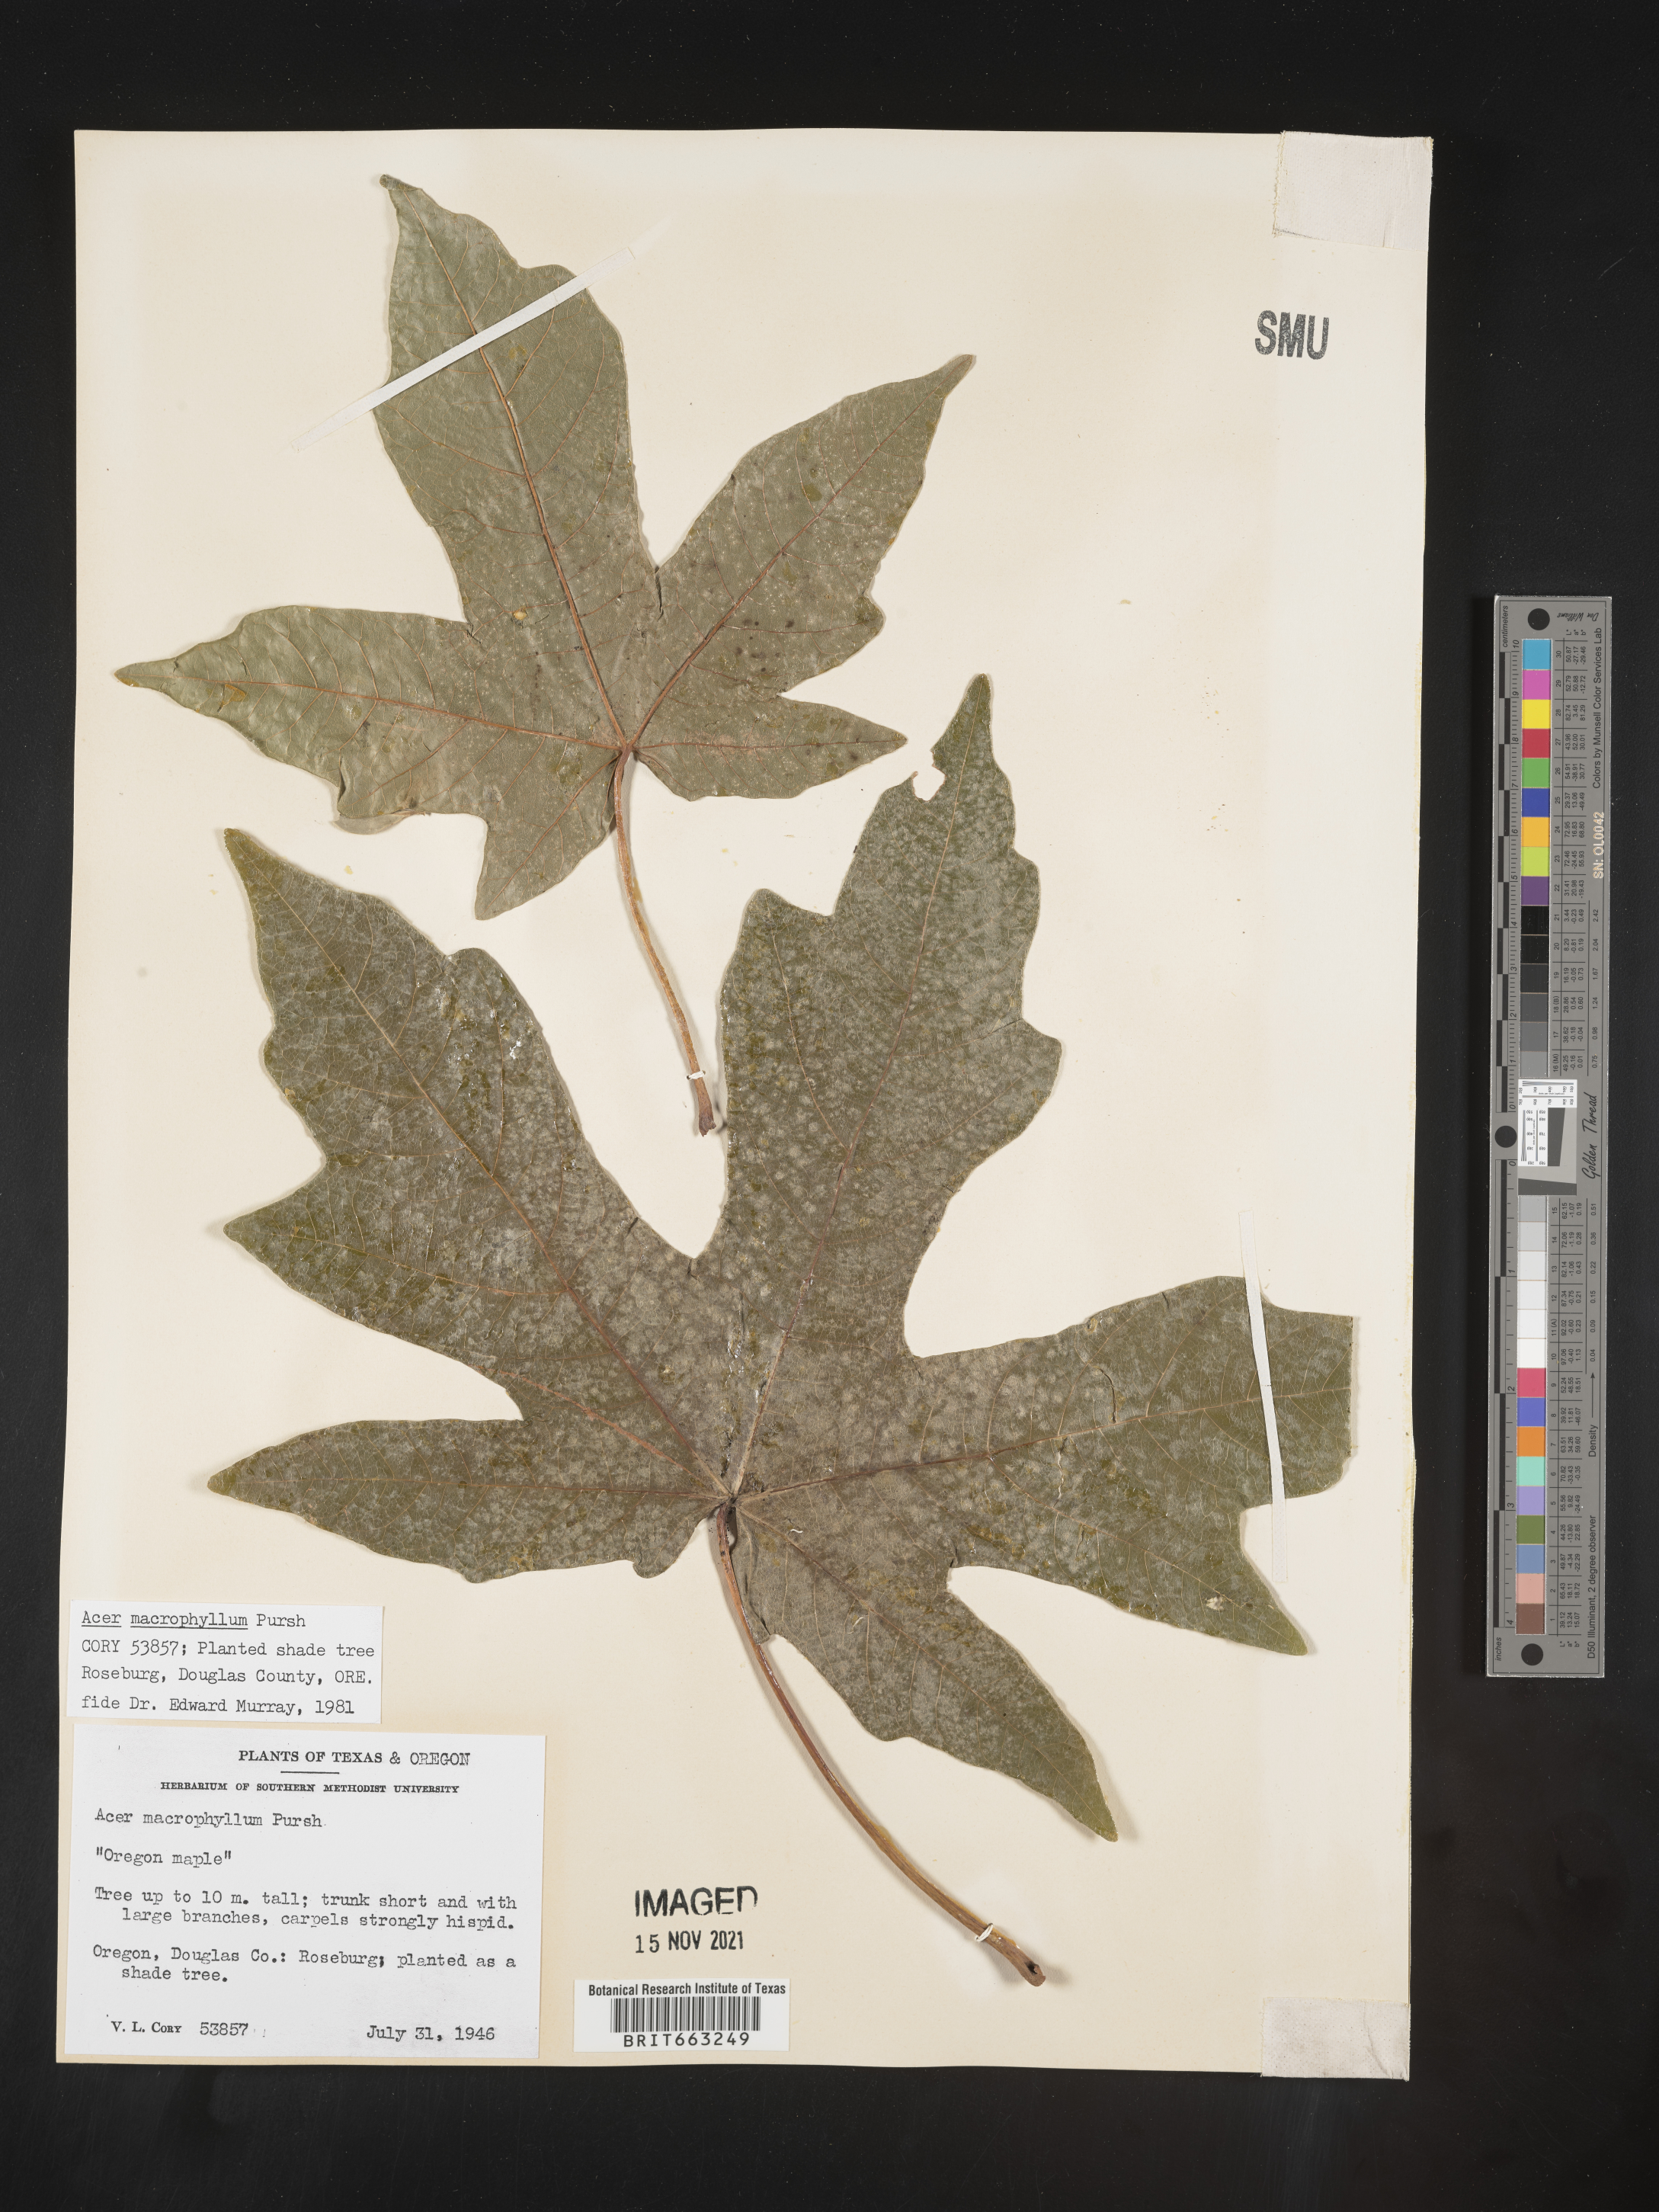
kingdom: Plantae
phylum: Tracheophyta
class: Magnoliopsida
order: Sapindales
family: Sapindaceae
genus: Acer
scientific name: Acer macrophyllum
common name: Oregon maple
